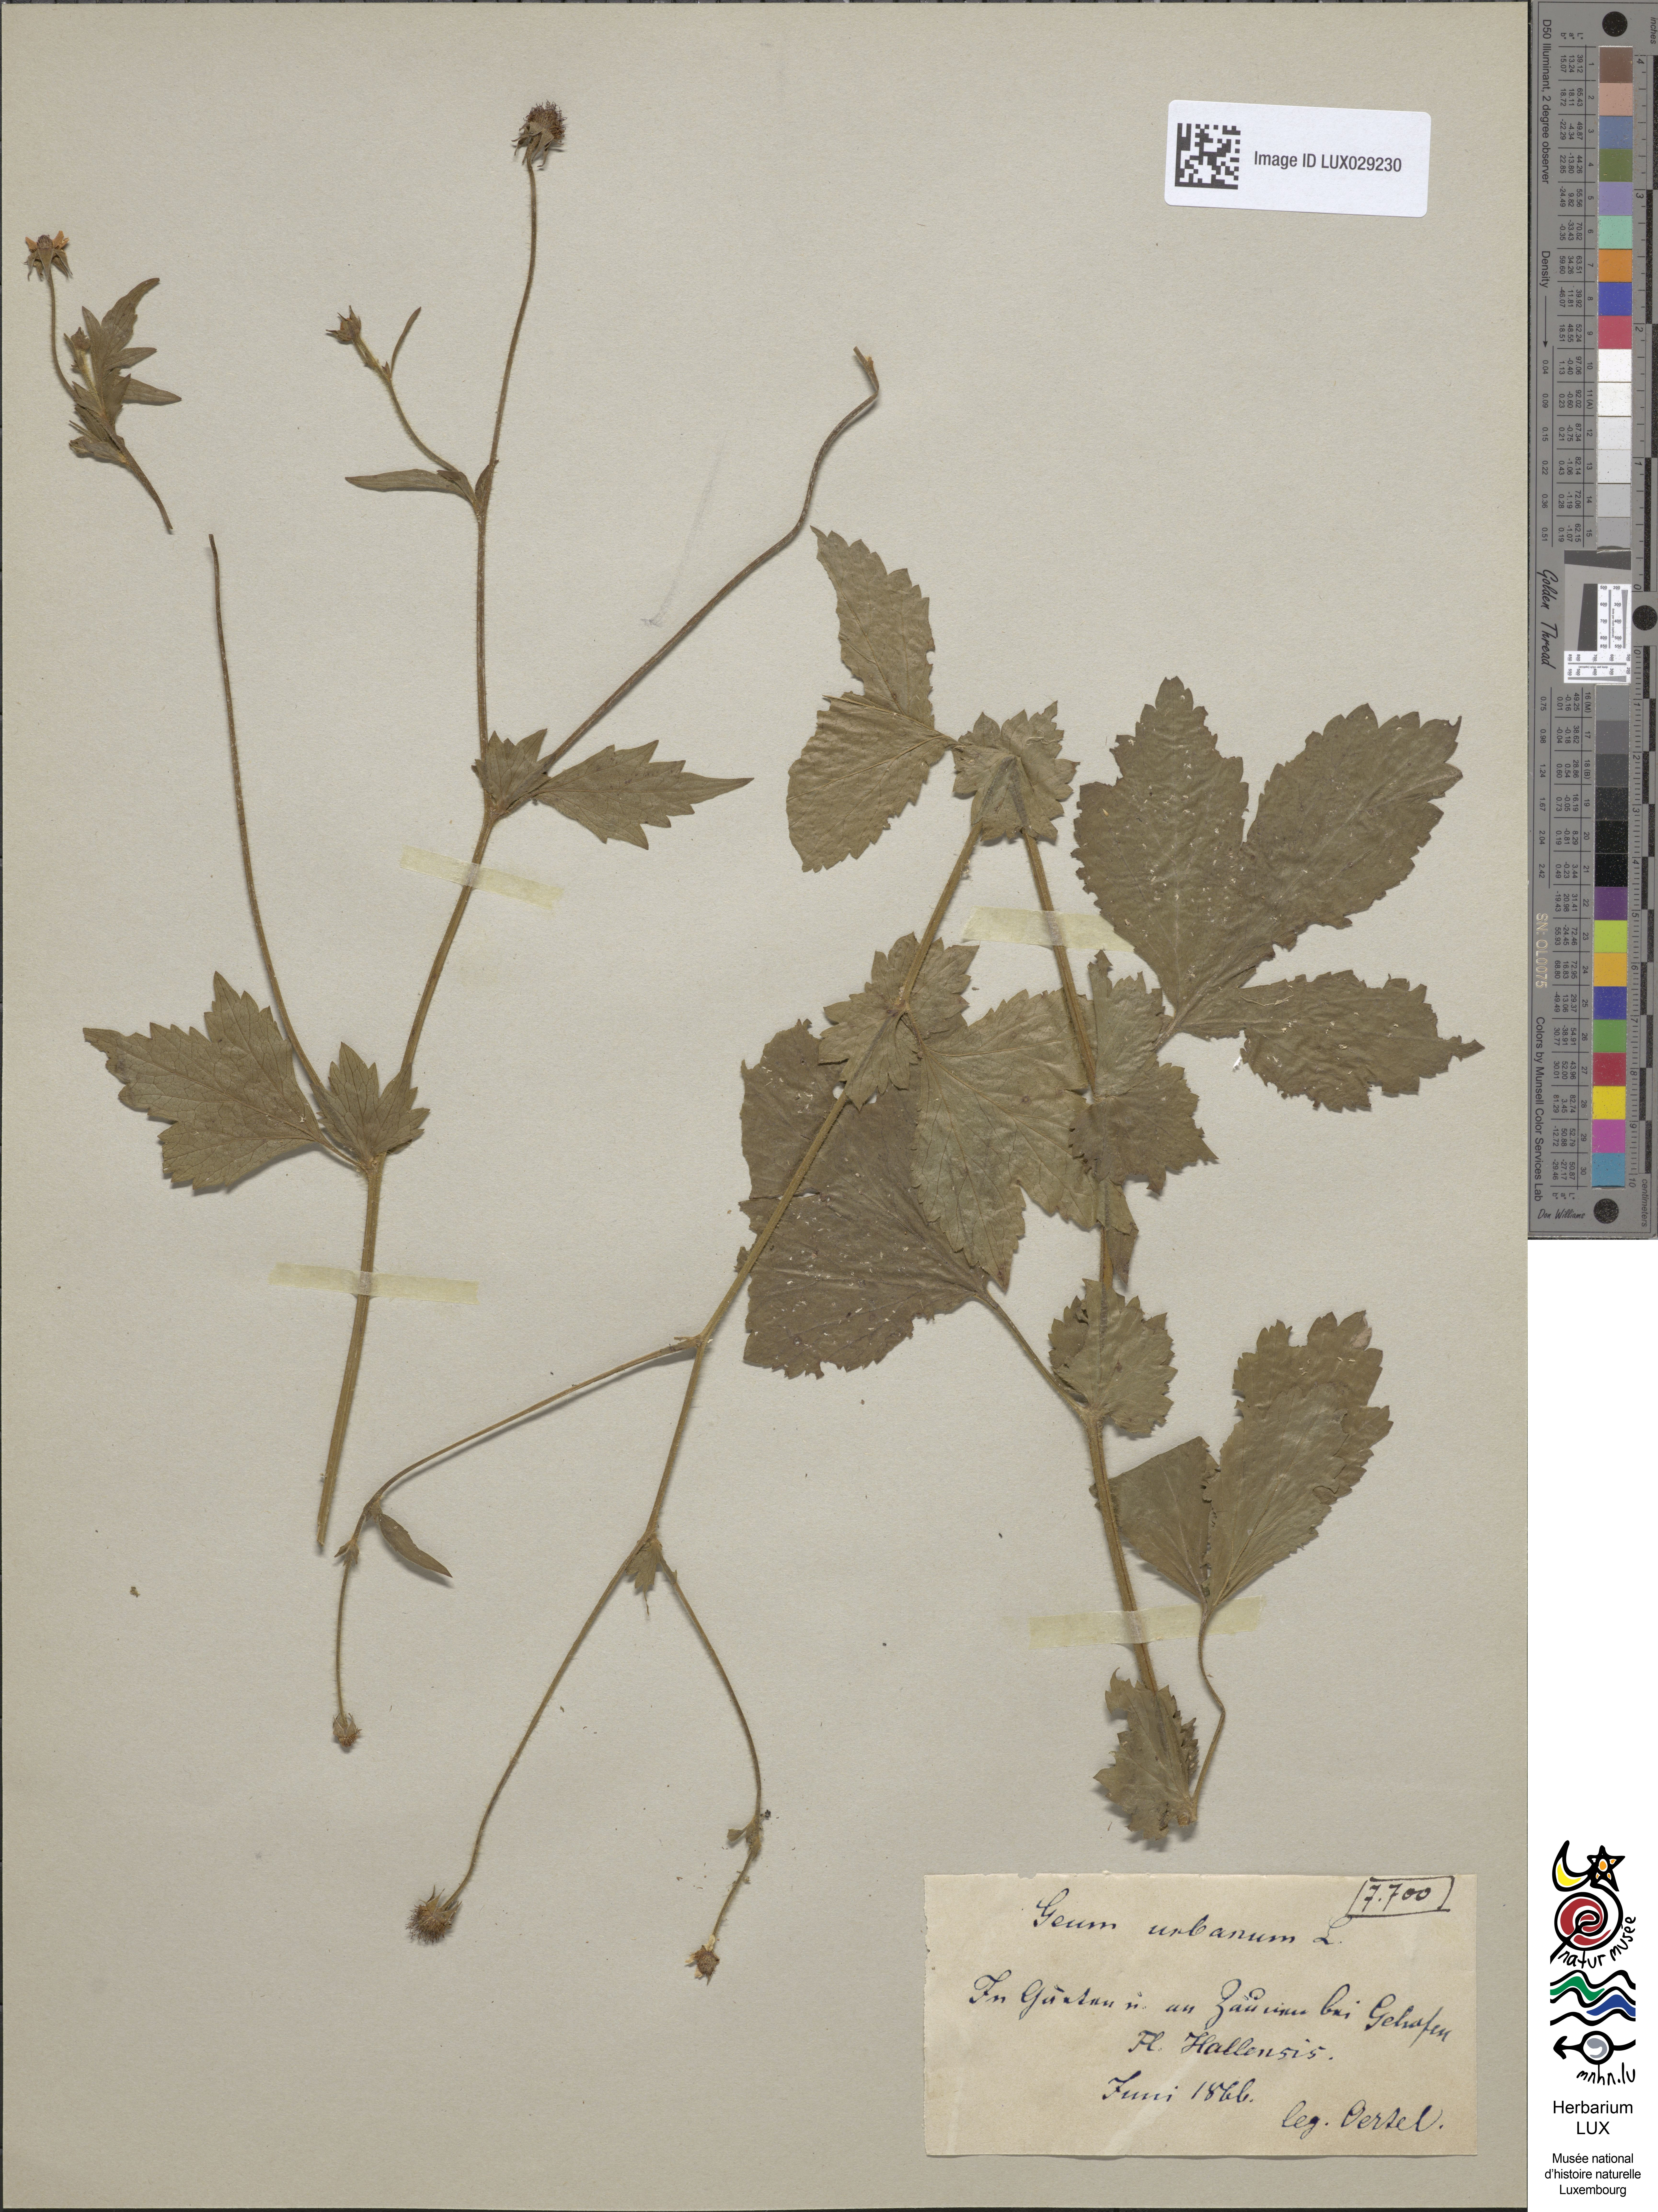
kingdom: Plantae
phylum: Tracheophyta
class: Magnoliopsida
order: Rosales
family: Rosaceae
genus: Geum
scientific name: Geum urbanum
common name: Wood avens
